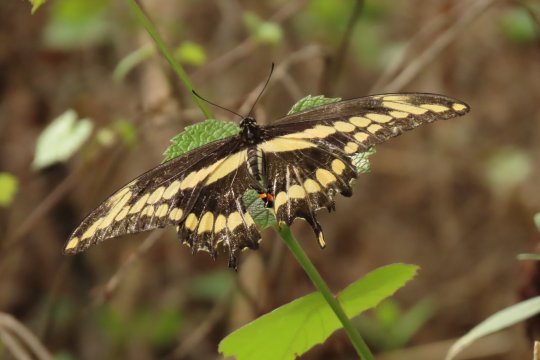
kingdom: Animalia
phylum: Arthropoda
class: Insecta
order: Lepidoptera
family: Papilionidae
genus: Papilio
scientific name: Papilio cresphontes
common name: Eastern Giant Swallowtail
